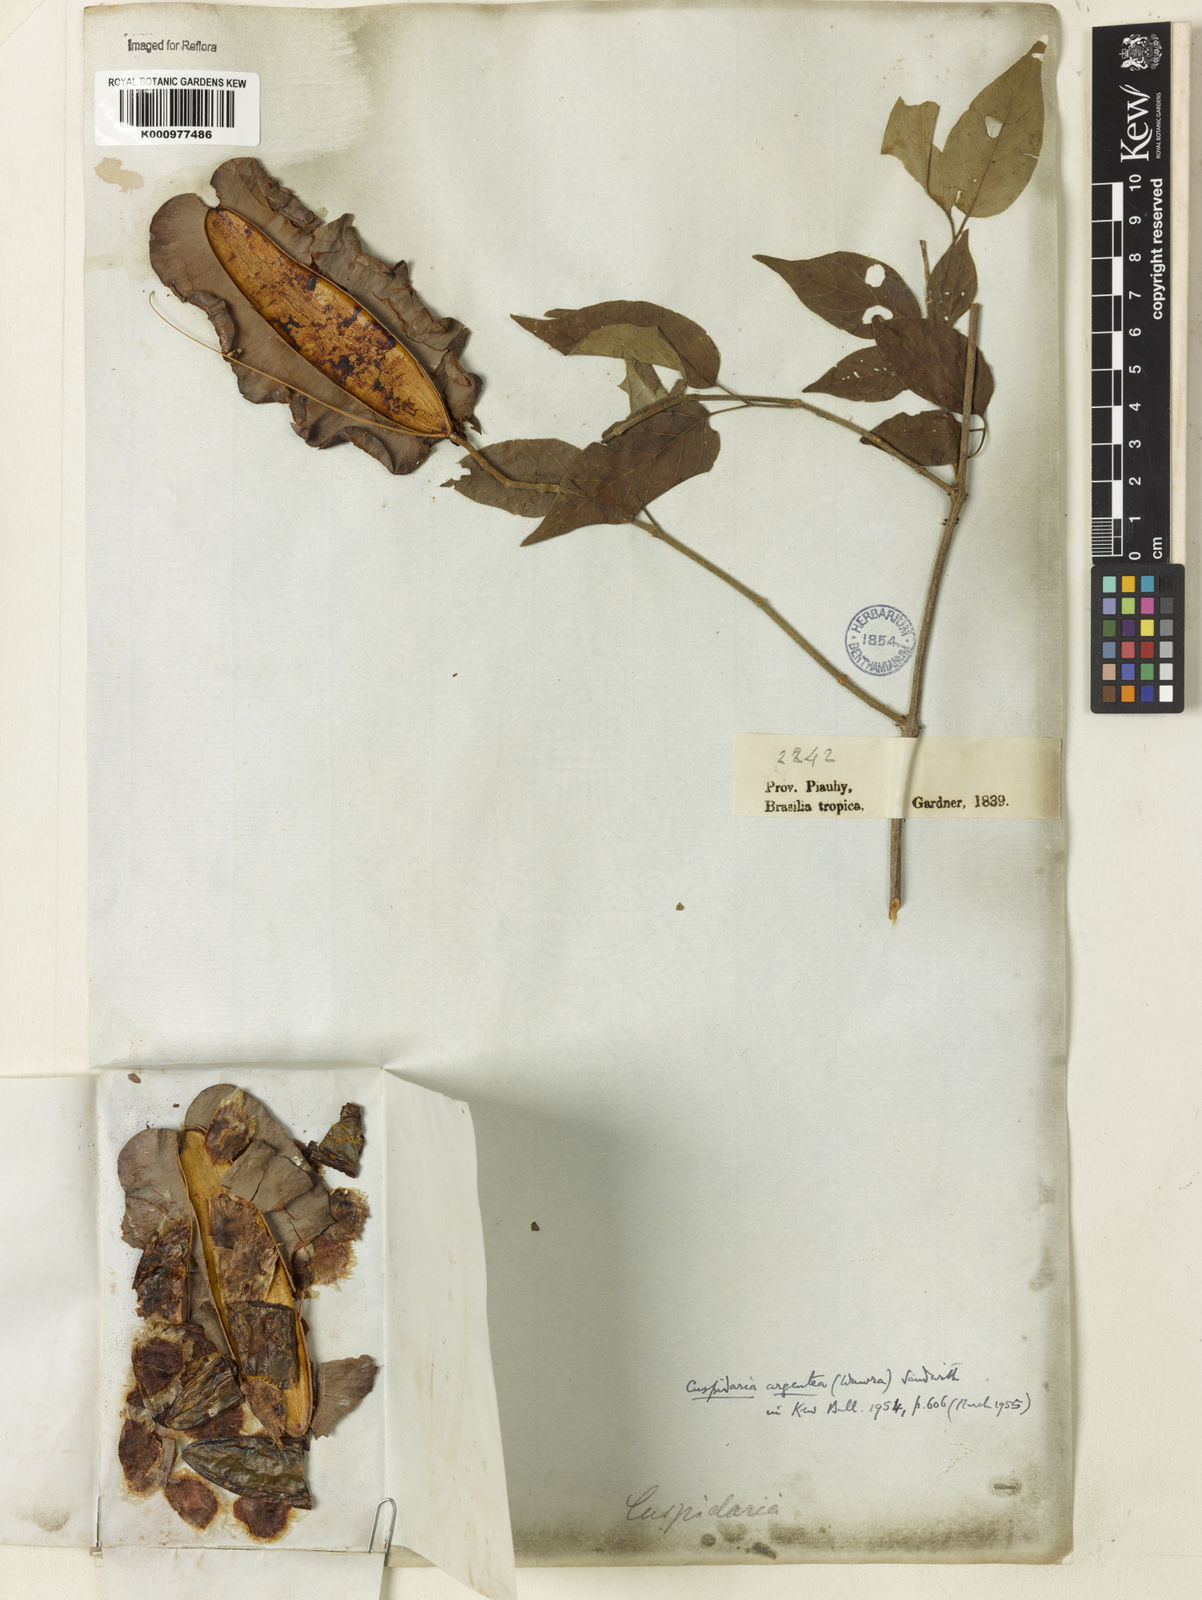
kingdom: Plantae
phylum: Tracheophyta
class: Magnoliopsida
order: Lamiales
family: Bignoniaceae
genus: Cuspidaria
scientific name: Cuspidaria argentea
